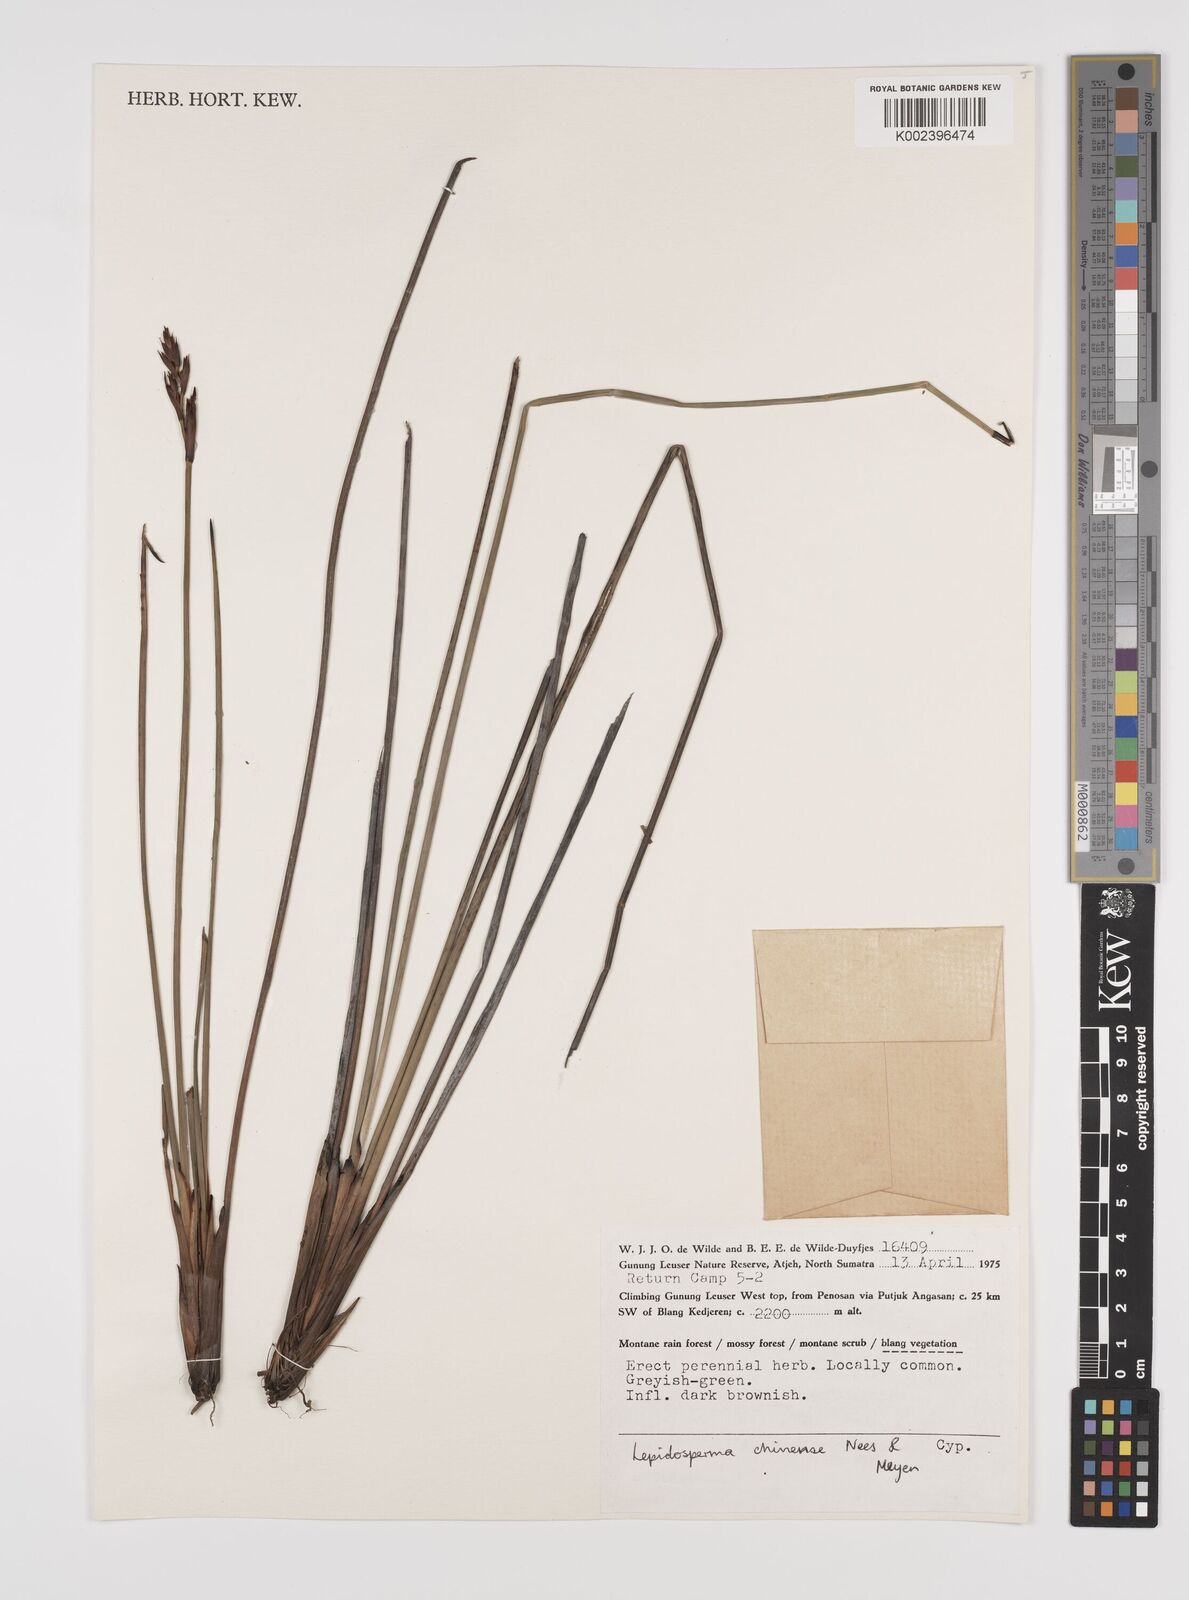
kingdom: Plantae
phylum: Tracheophyta
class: Liliopsida
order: Poales
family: Cyperaceae
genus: Lepidosperma
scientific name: Lepidosperma chinense
